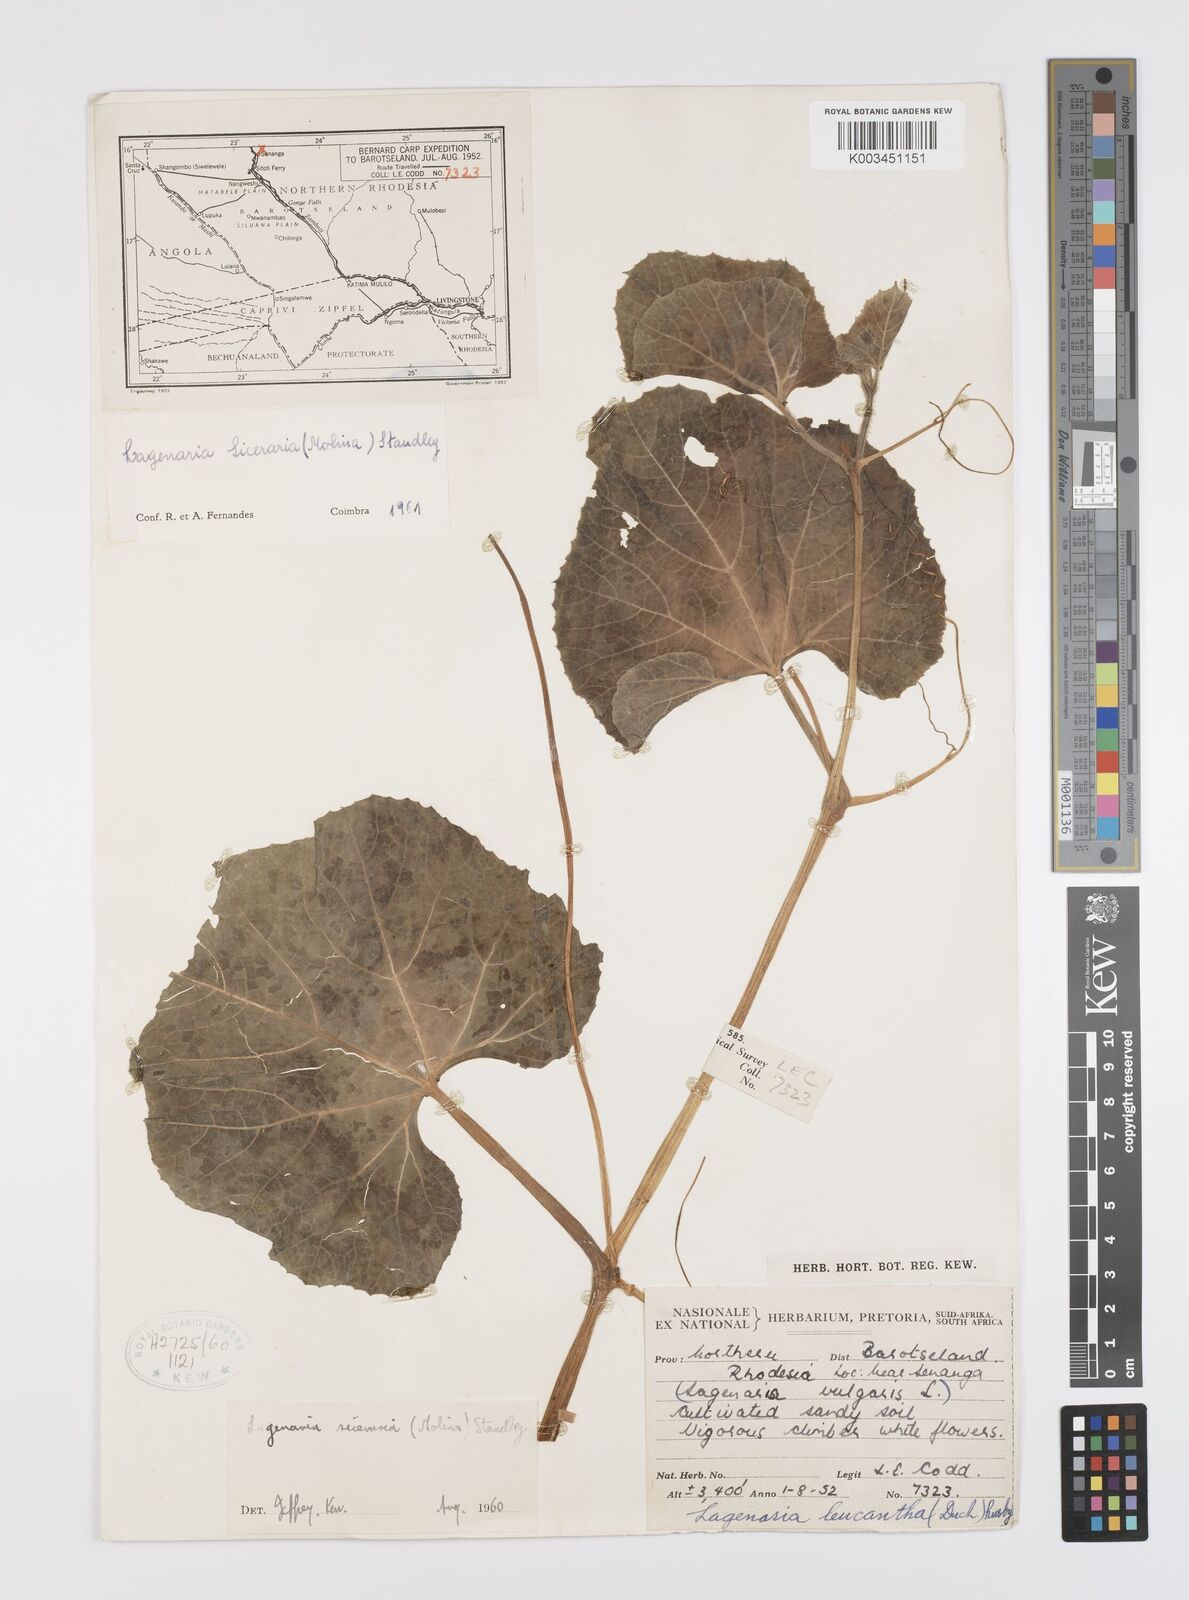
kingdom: Plantae
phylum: Tracheophyta
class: Magnoliopsida
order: Cucurbitales
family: Cucurbitaceae
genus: Lagenaria
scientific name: Lagenaria siceraria
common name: Bottle gourd
